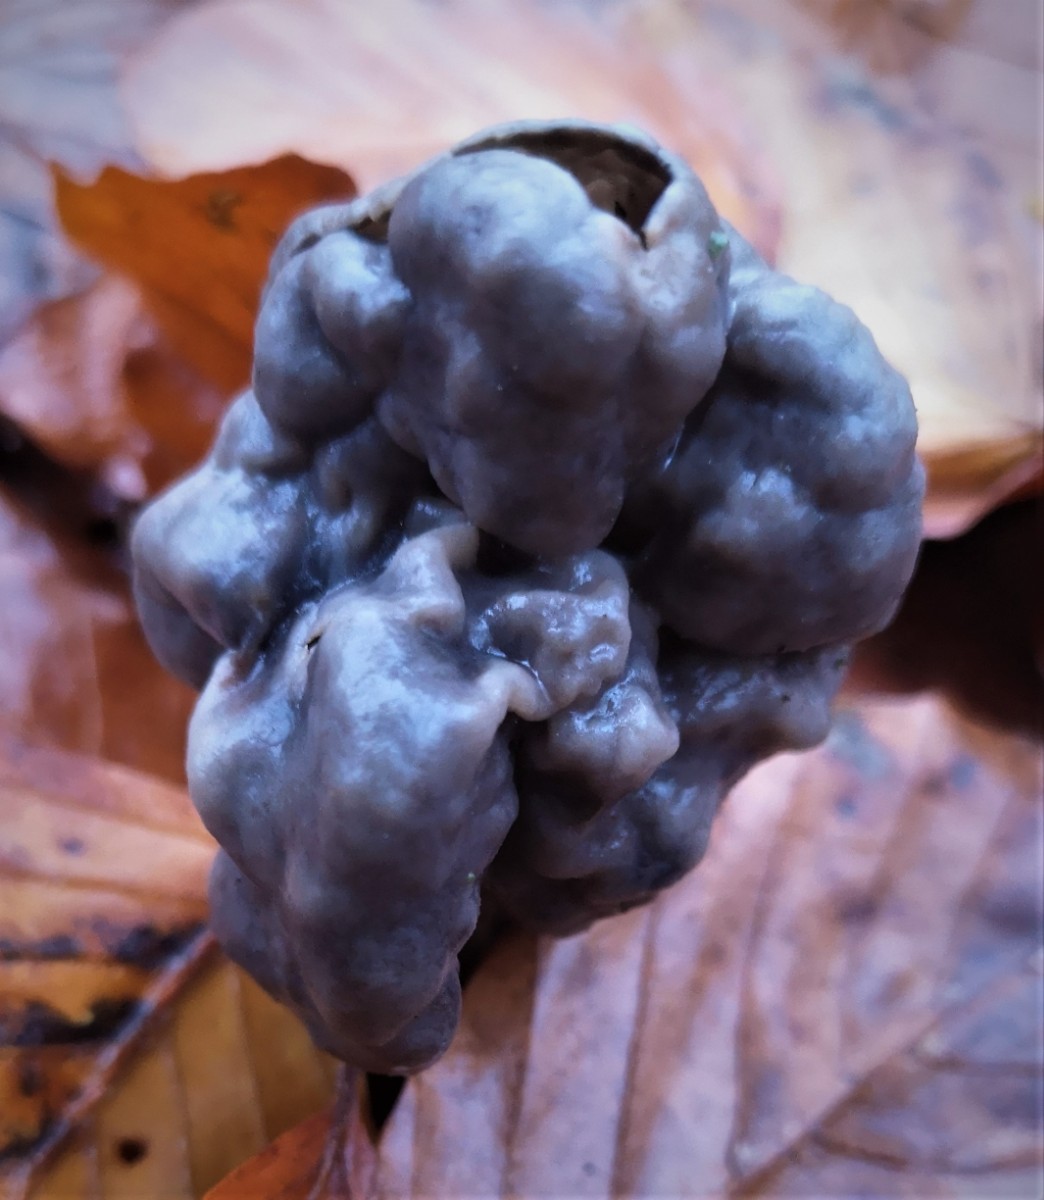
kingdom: Fungi
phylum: Ascomycota
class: Pezizomycetes
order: Pezizales
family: Helvellaceae
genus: Helvella
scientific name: Helvella lacunosa
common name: grubet foldhat
